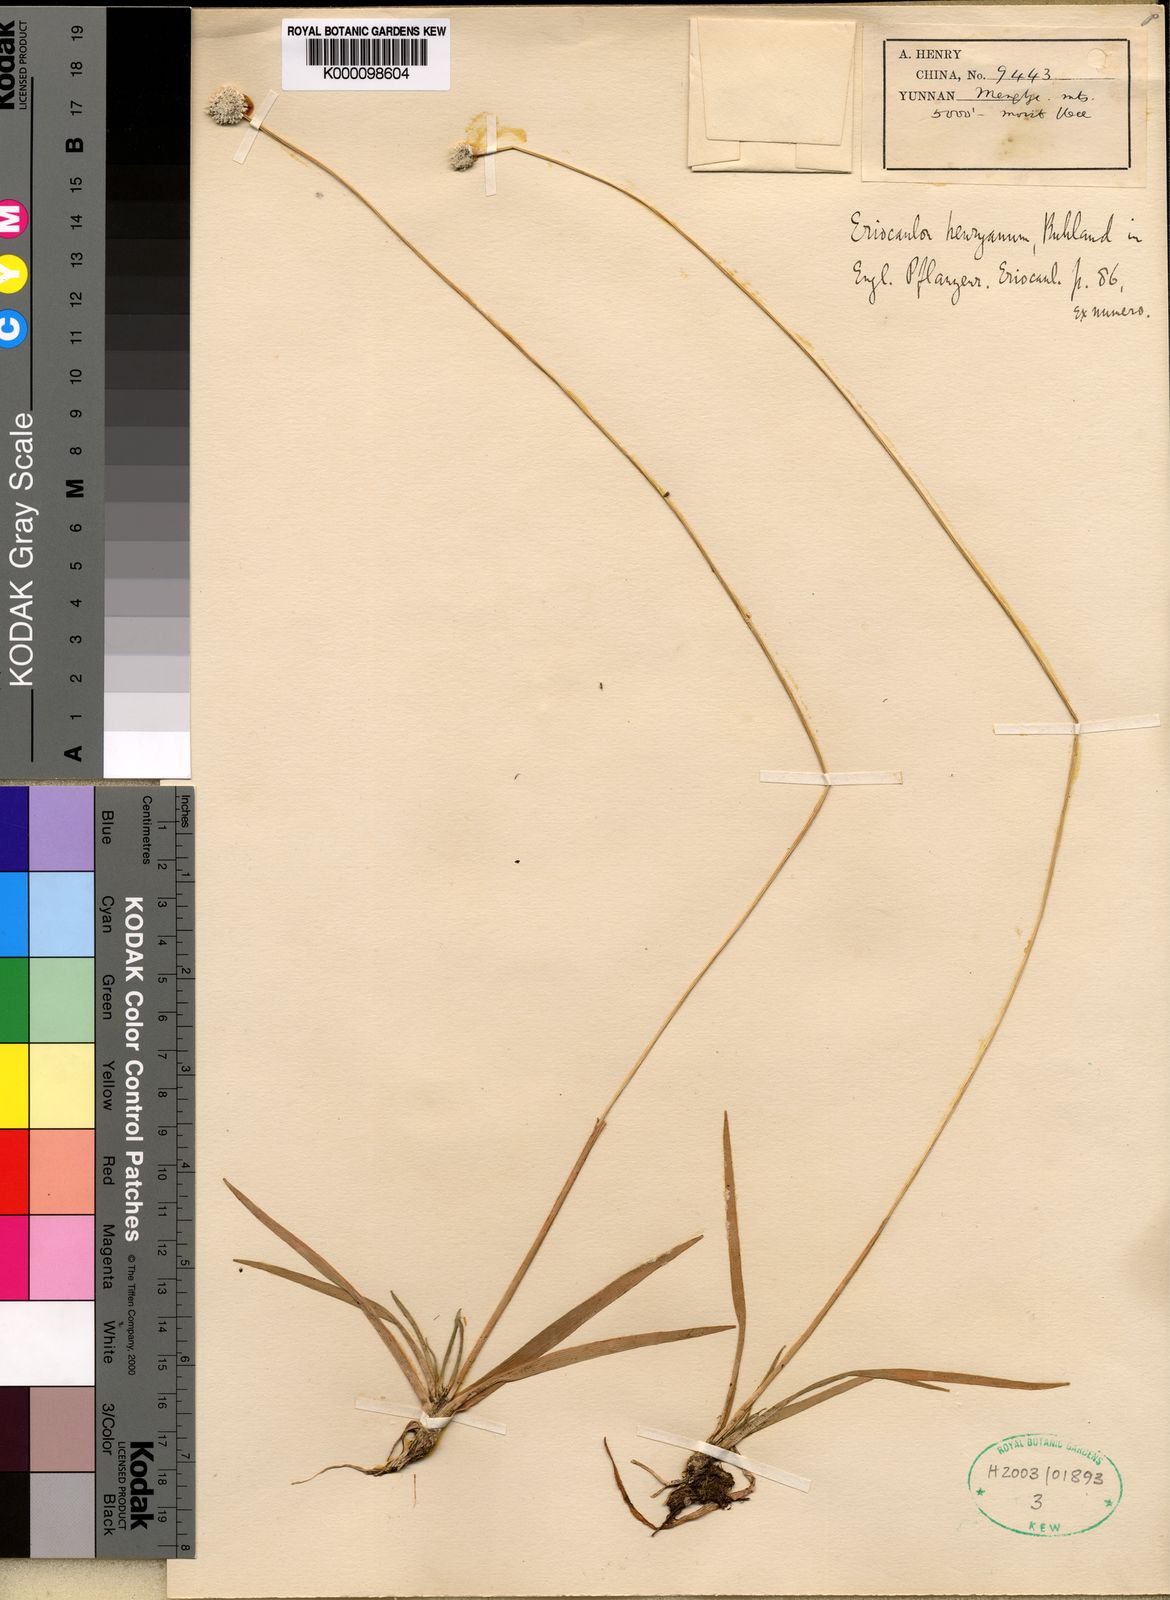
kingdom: Plantae
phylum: Tracheophyta
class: Liliopsida
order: Poales
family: Eriocaulaceae
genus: Eriocaulon
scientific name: Eriocaulon henryanum
